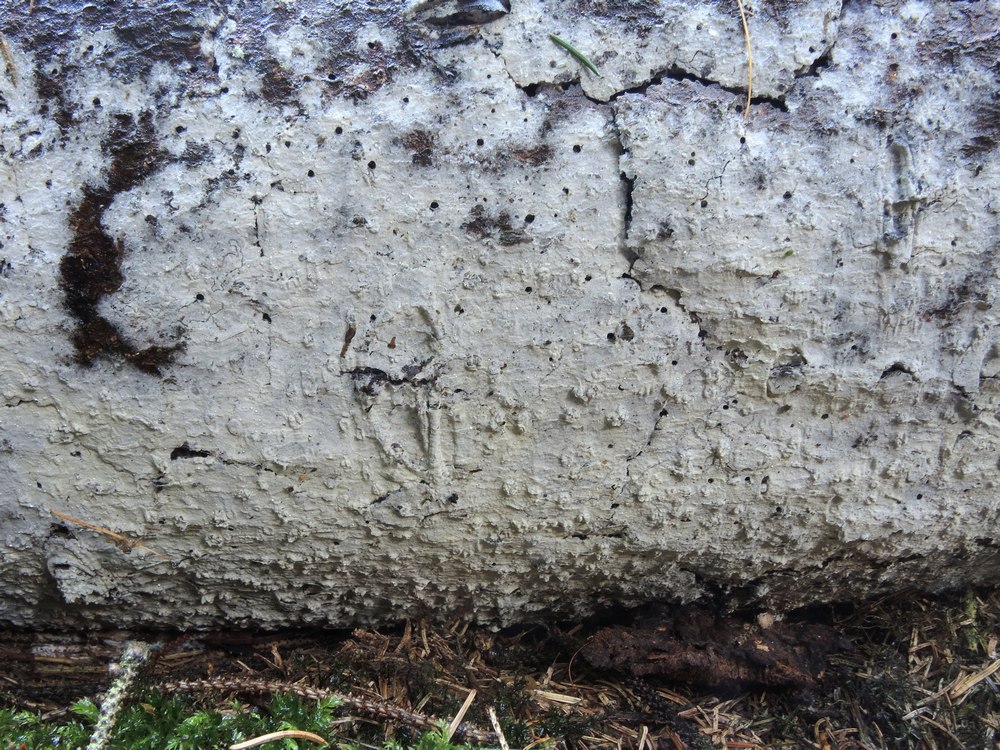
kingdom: Fungi
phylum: Basidiomycota
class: Agaricomycetes
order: Atheliales
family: Atheliaceae
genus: Athelia
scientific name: Athelia epiphylla
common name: almindelig barkhinde
